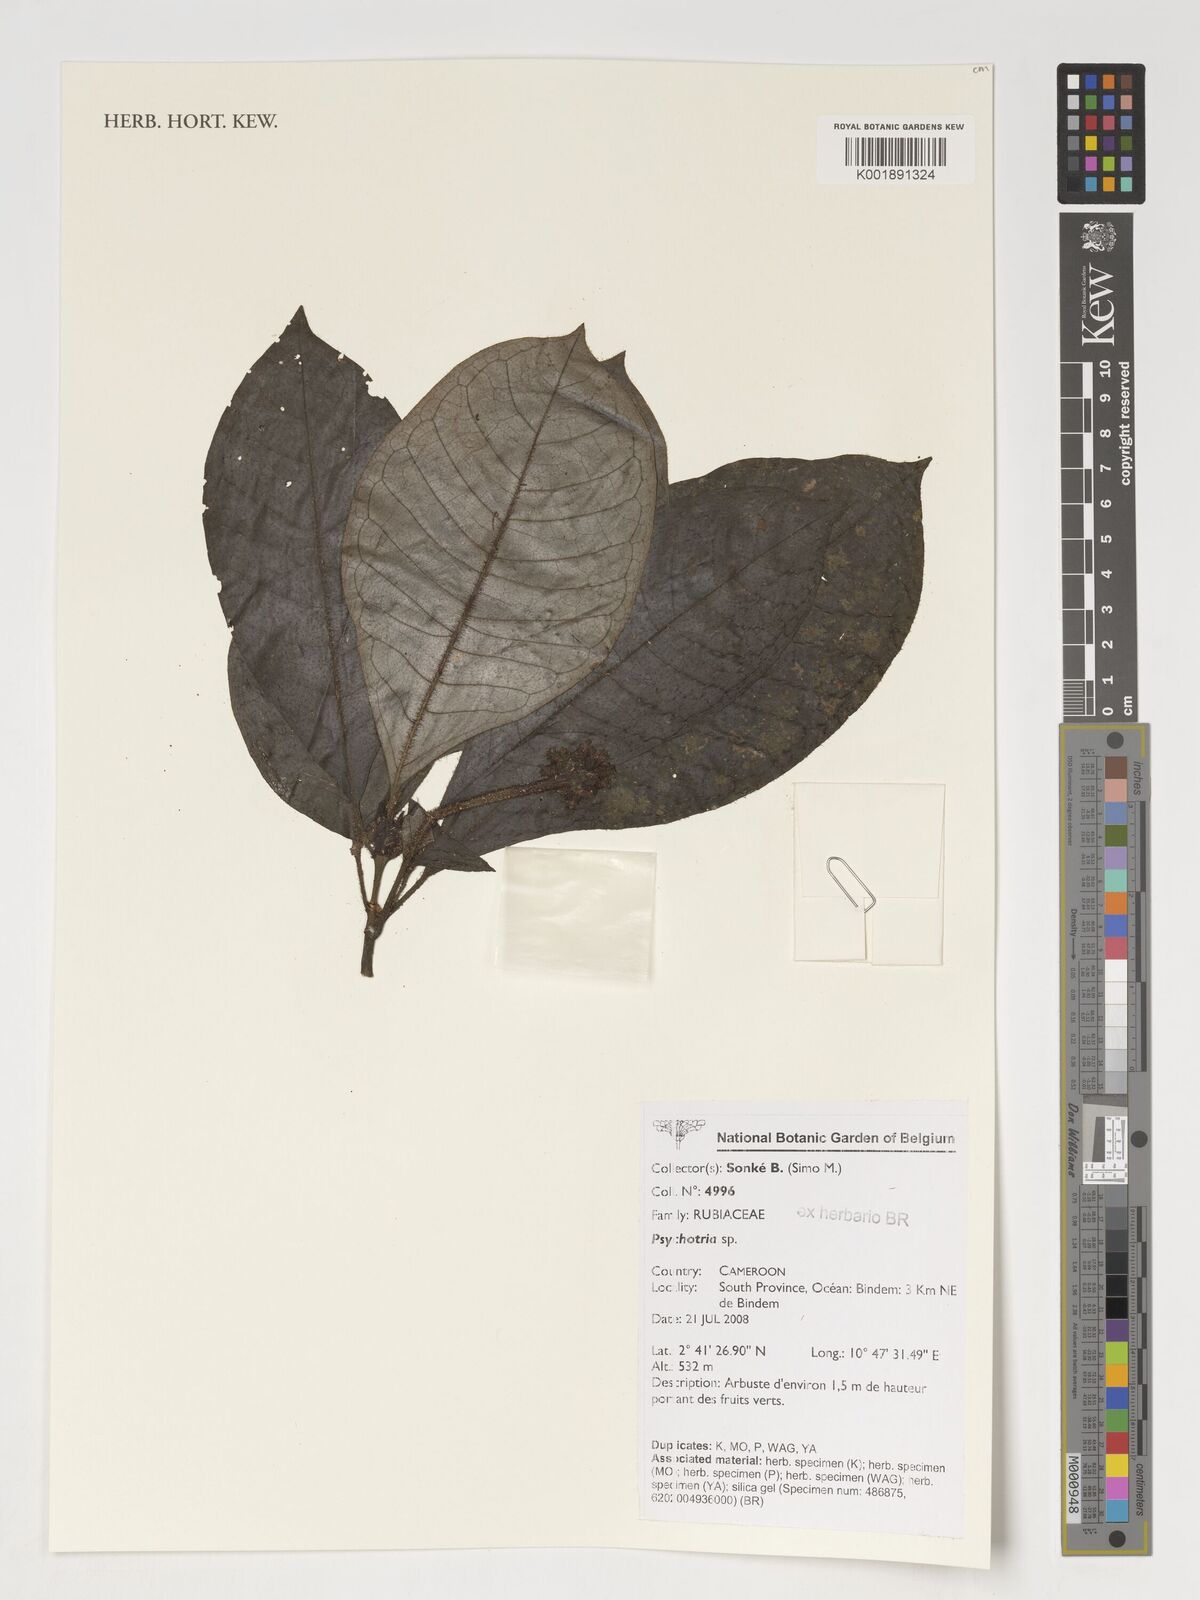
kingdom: Plantae
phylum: Tracheophyta
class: Magnoliopsida
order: Gentianales
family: Rubiaceae
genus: Psychotria
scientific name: Psychotria
